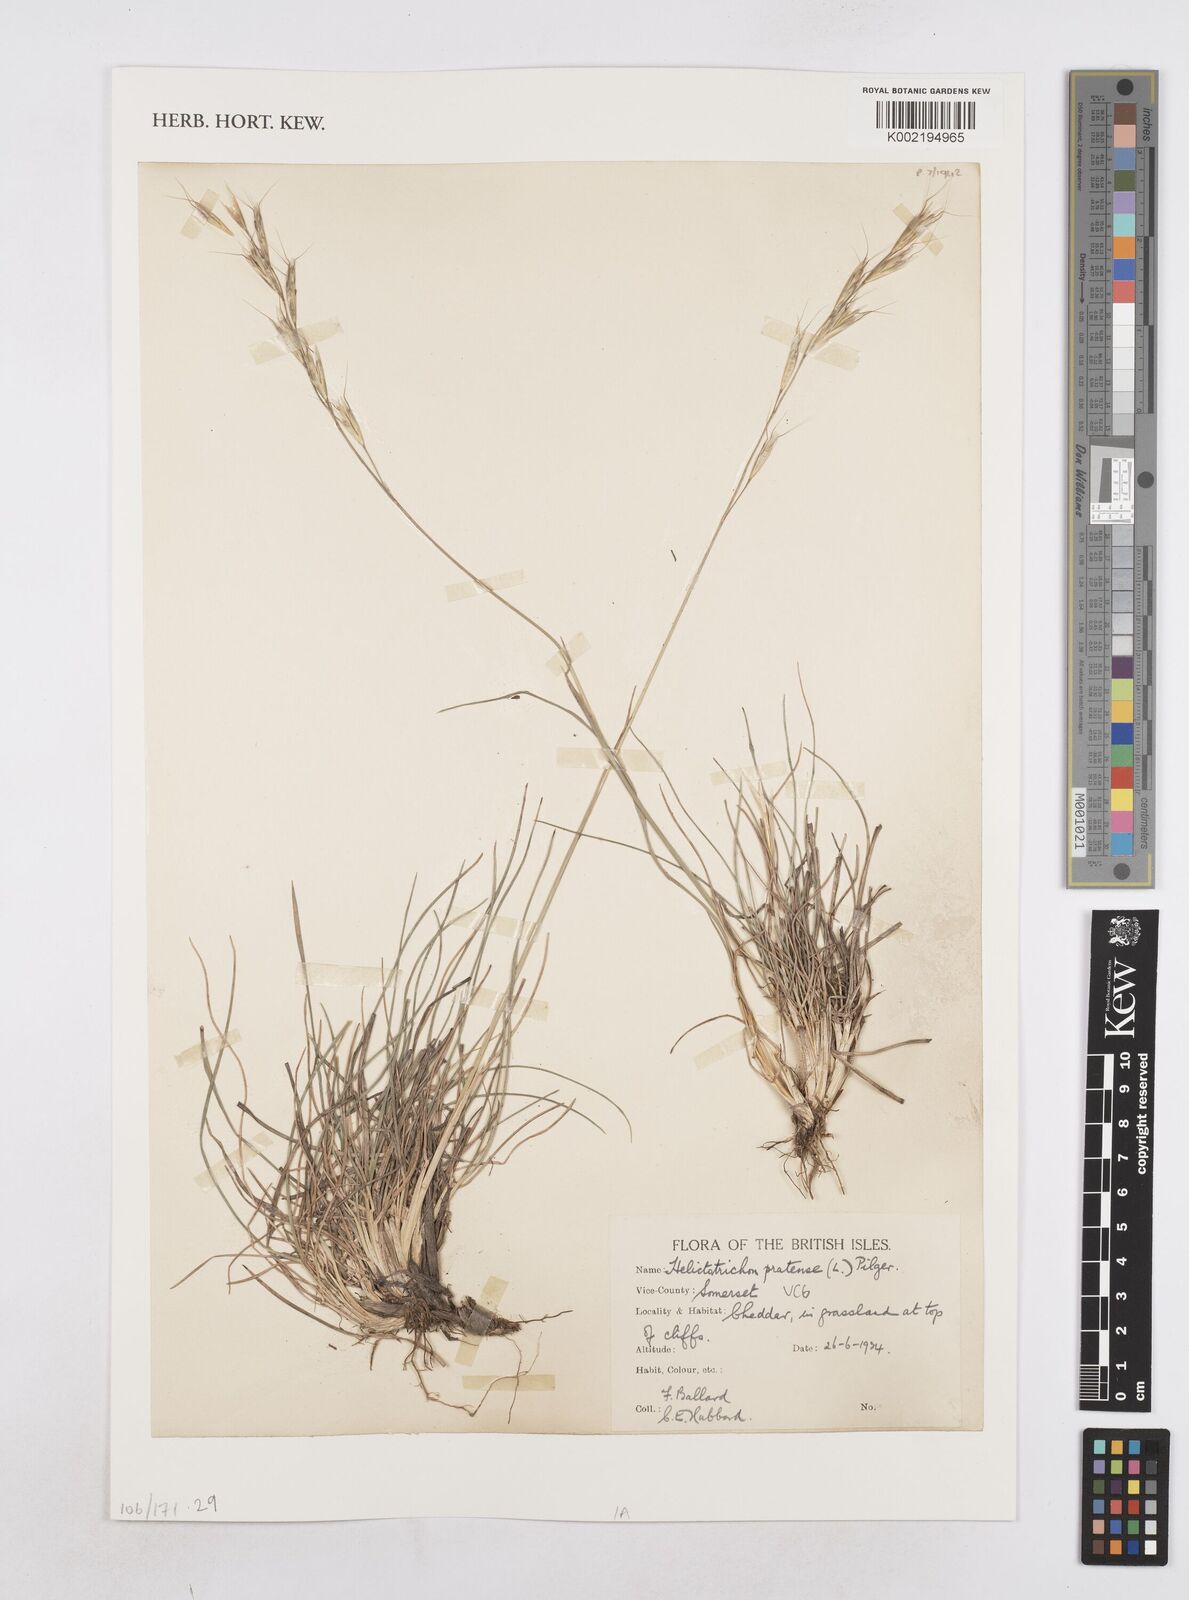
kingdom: Plantae
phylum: Tracheophyta
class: Liliopsida
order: Poales
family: Poaceae
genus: Helictochloa
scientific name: Helictochloa pratensis
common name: Meadow oat grass
